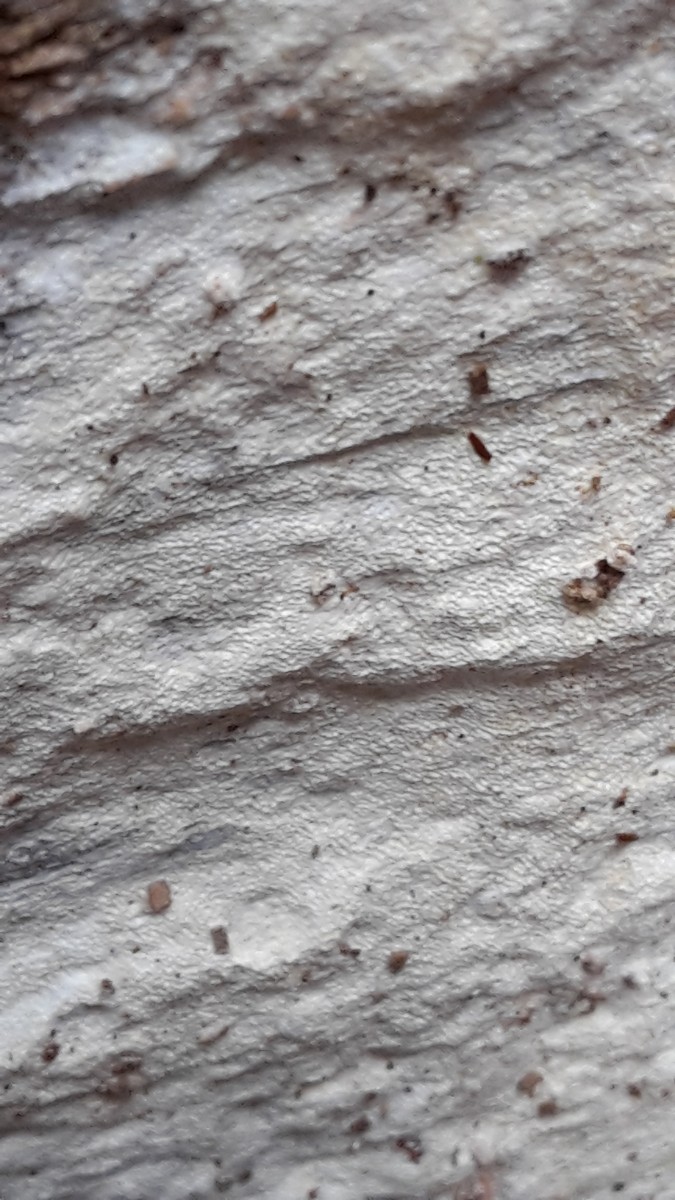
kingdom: Fungi
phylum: Basidiomycota
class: Agaricomycetes
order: Polyporales
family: Fomitopsidaceae
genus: Daedalea
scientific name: Daedalea xantha
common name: gul sejporesvamp
